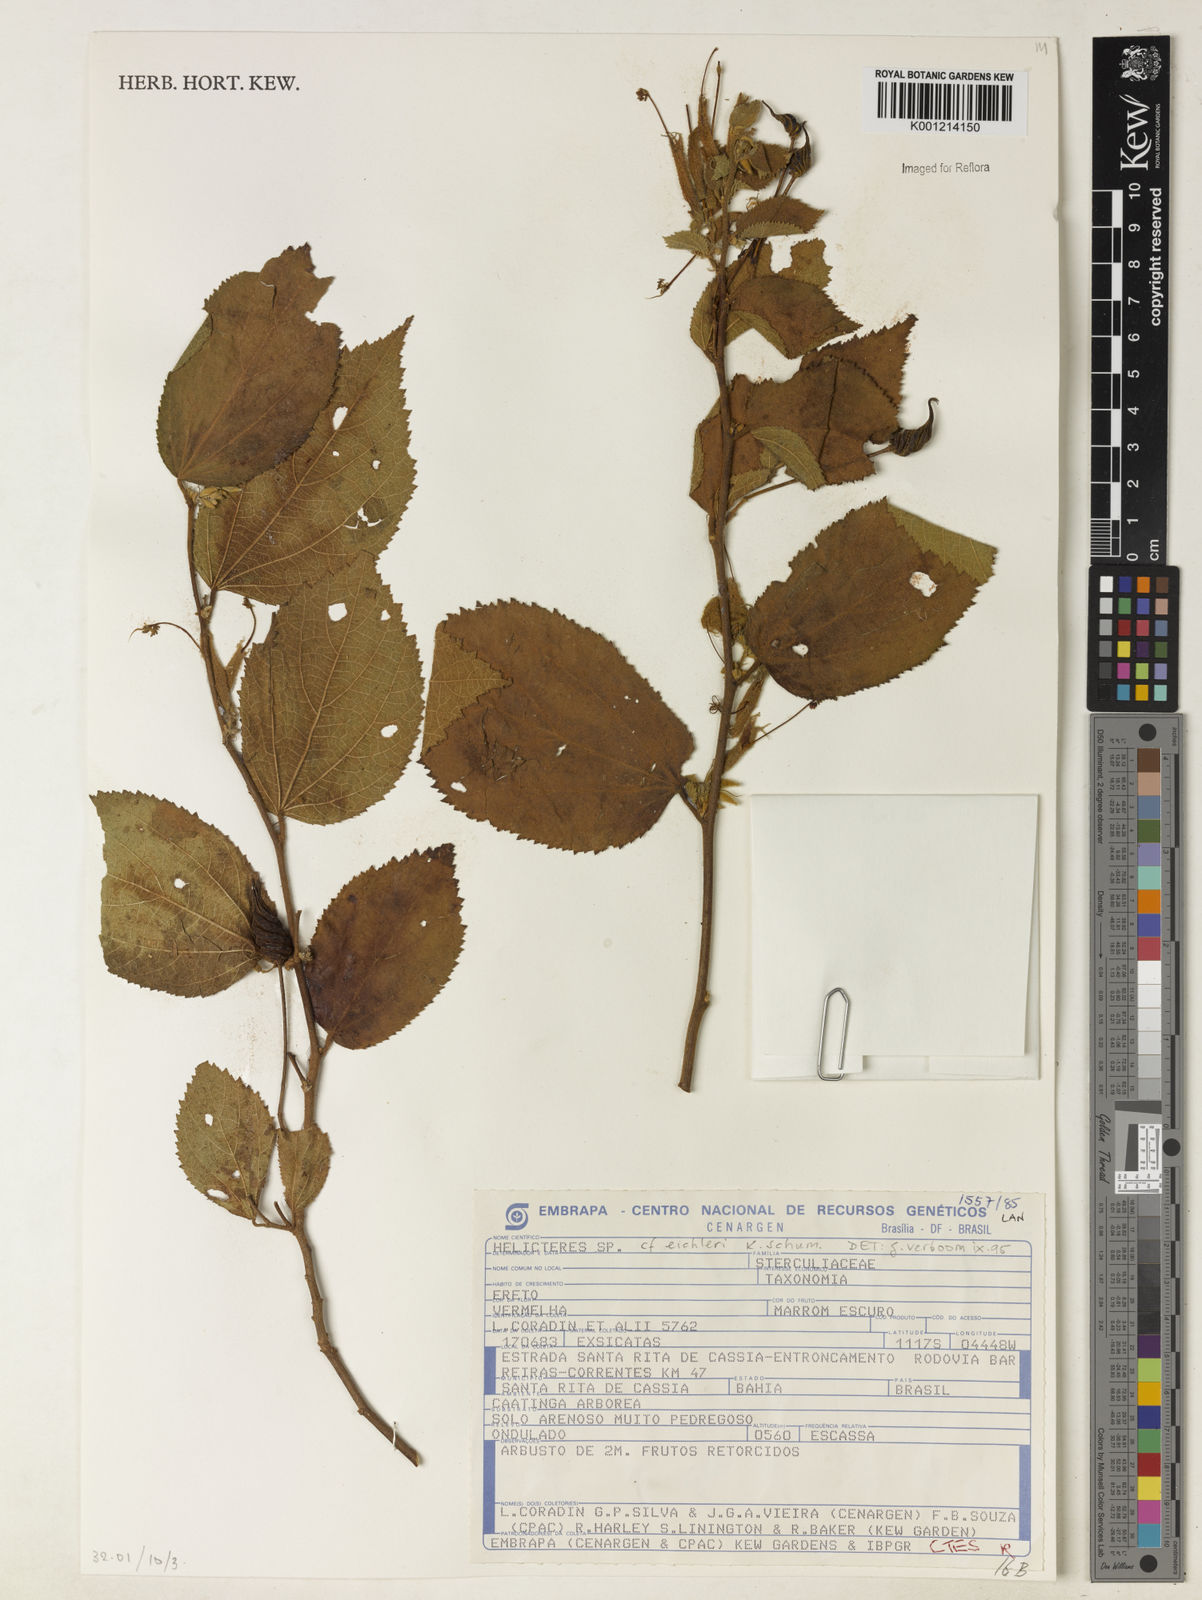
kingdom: Plantae
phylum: Tracheophyta
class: Magnoliopsida
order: Malvales
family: Malvaceae
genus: Helicteres
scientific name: Helicteres eichleri
